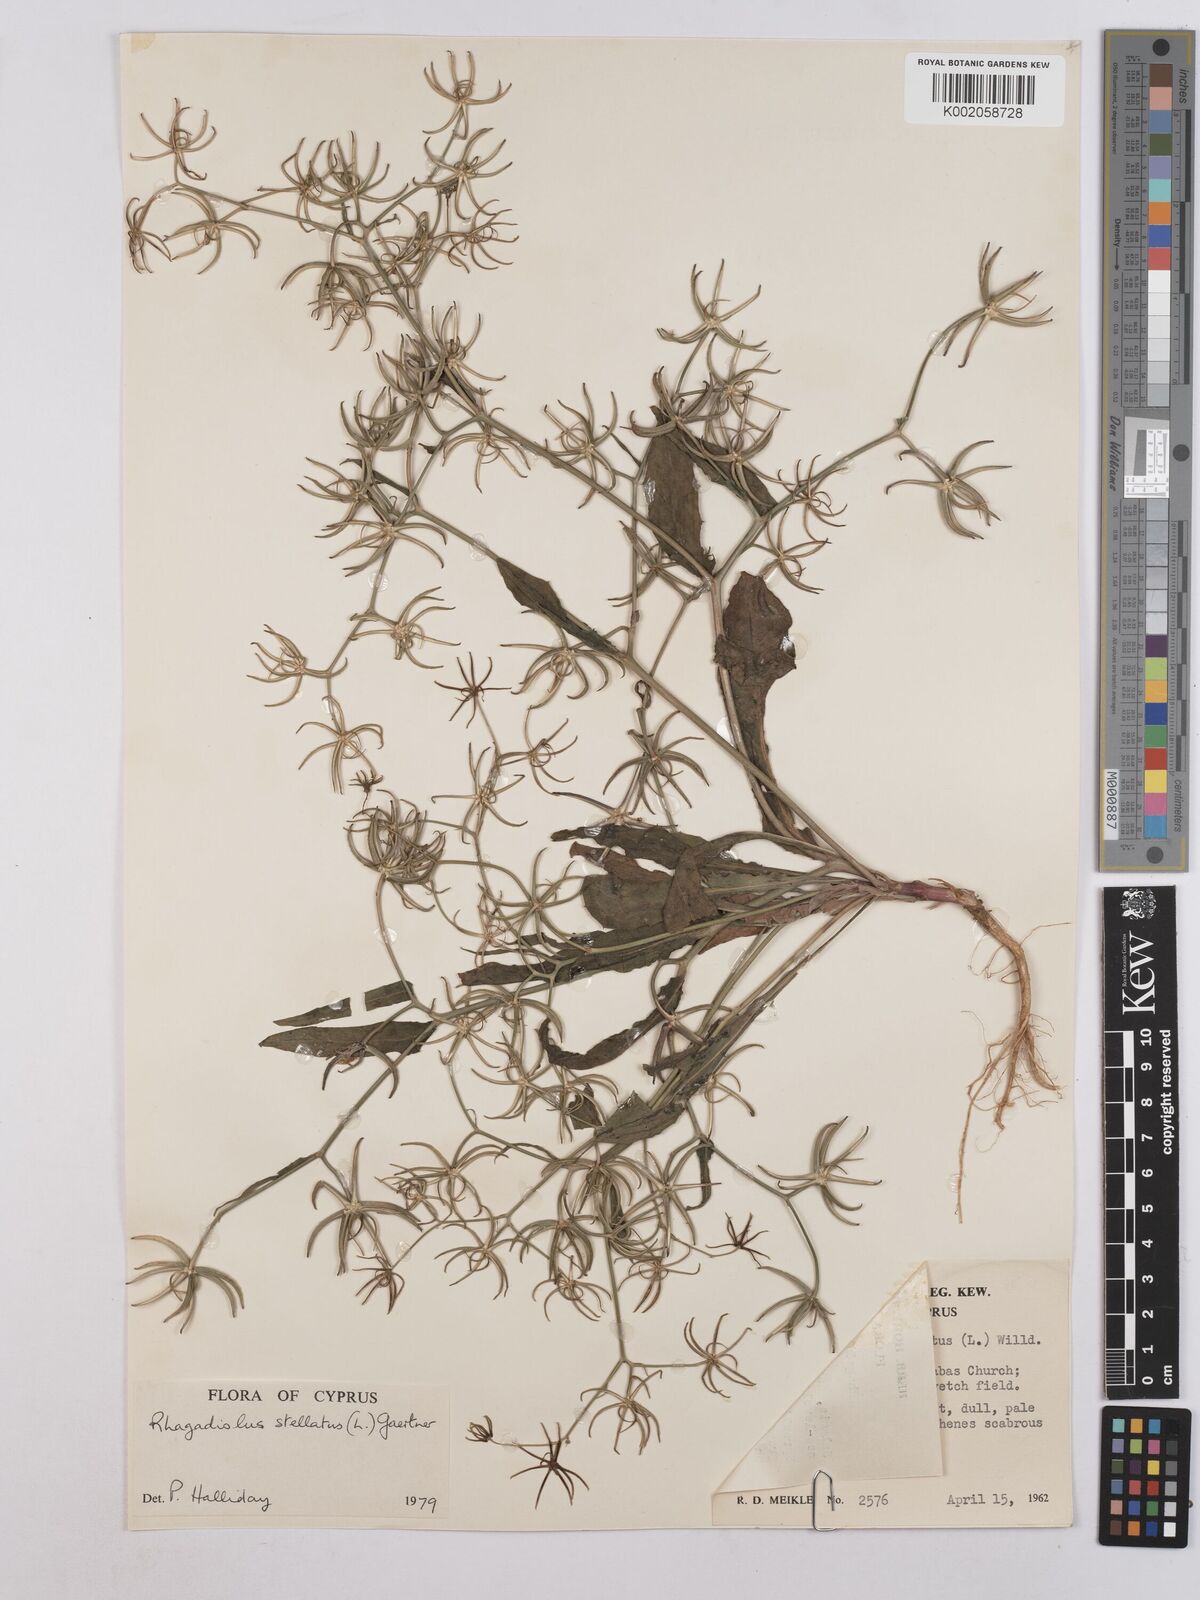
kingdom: Plantae
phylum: Tracheophyta
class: Magnoliopsida
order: Asterales
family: Asteraceae
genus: Rhagadiolus
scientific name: Rhagadiolus stellatus
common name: Star hawkbit
